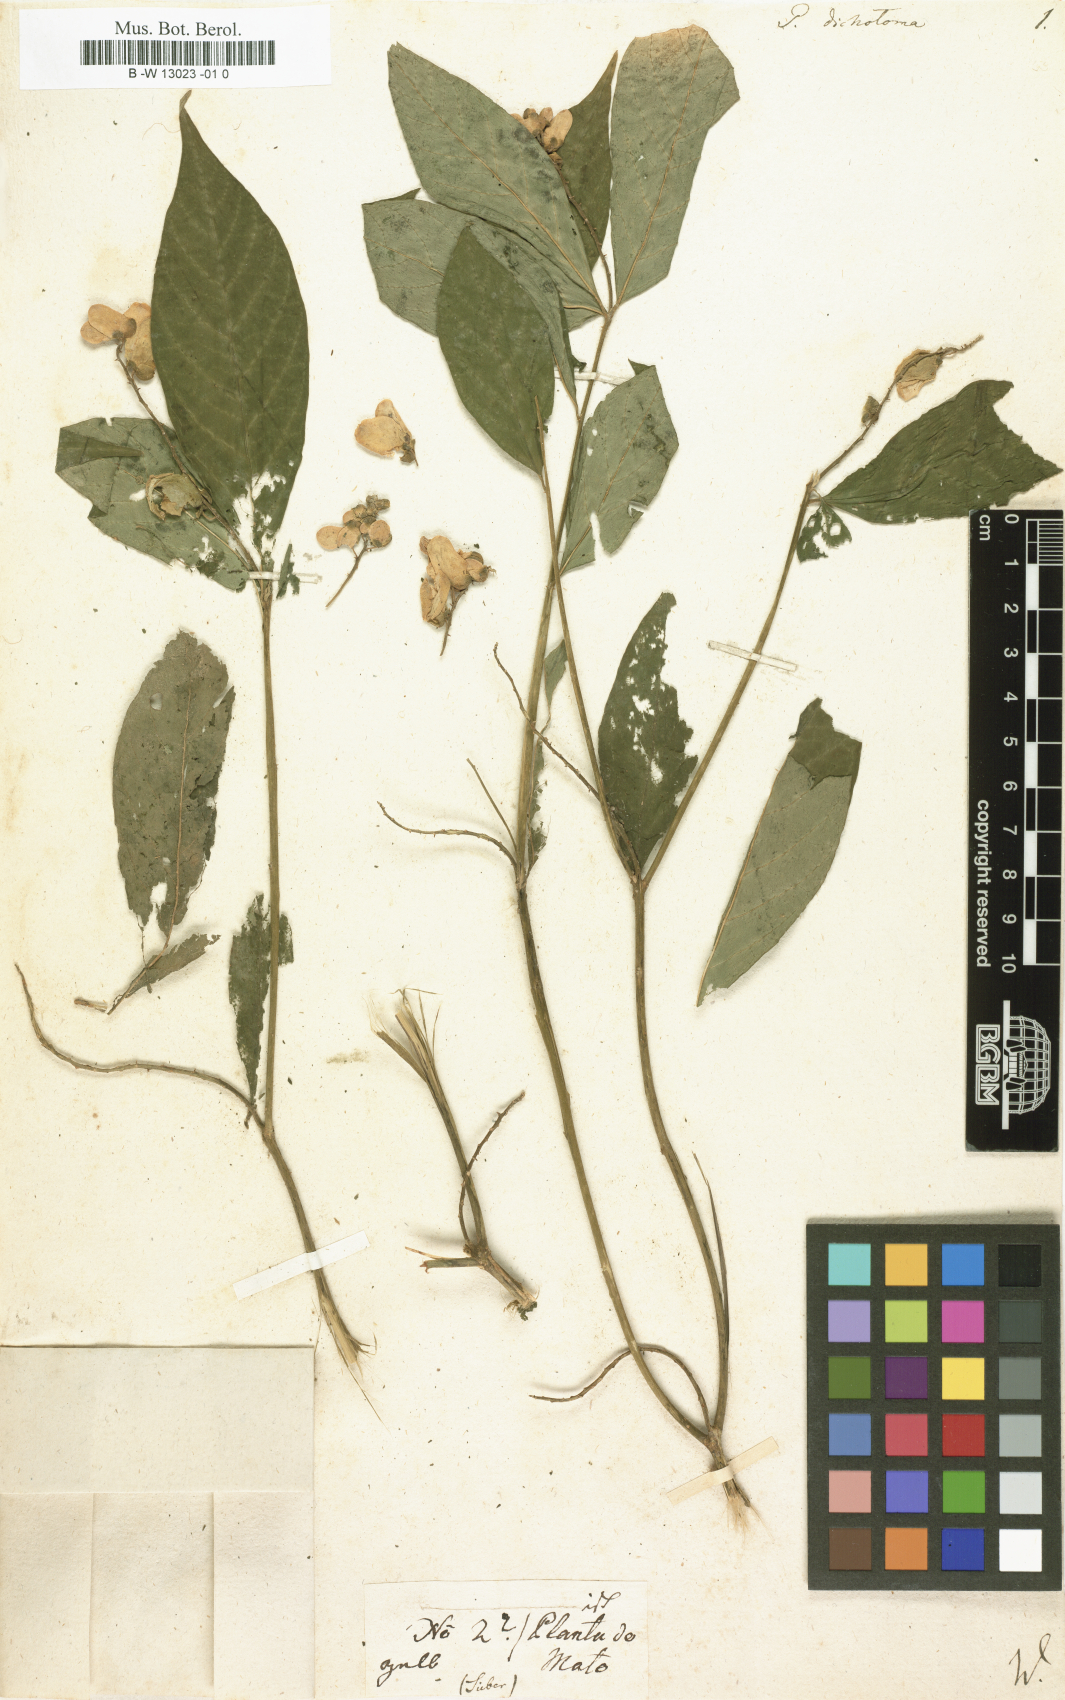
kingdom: Plantae
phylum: Tracheophyta
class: Magnoliopsida
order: Fabales
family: Polygalaceae
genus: Caamembeca
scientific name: Caamembeca salicifolia
